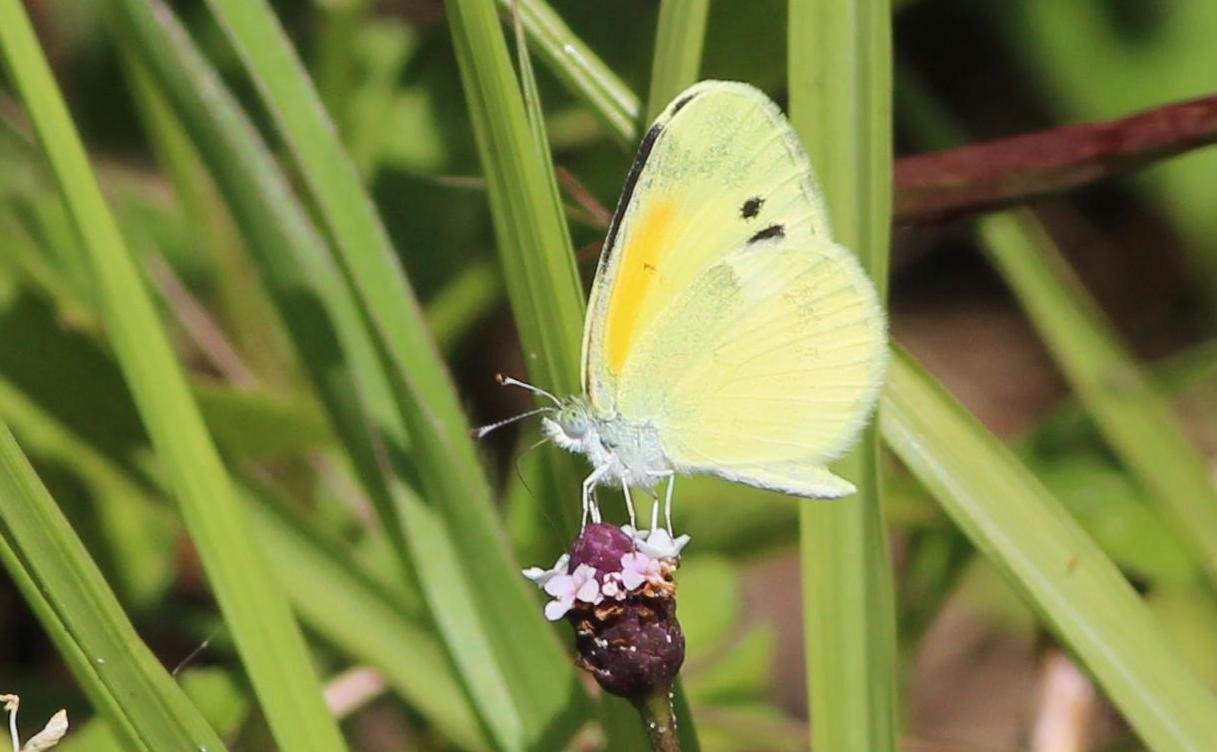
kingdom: Animalia
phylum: Arthropoda
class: Insecta
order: Lepidoptera
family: Pieridae
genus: Eurema
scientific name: Eurema daira
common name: Barred Yellow
